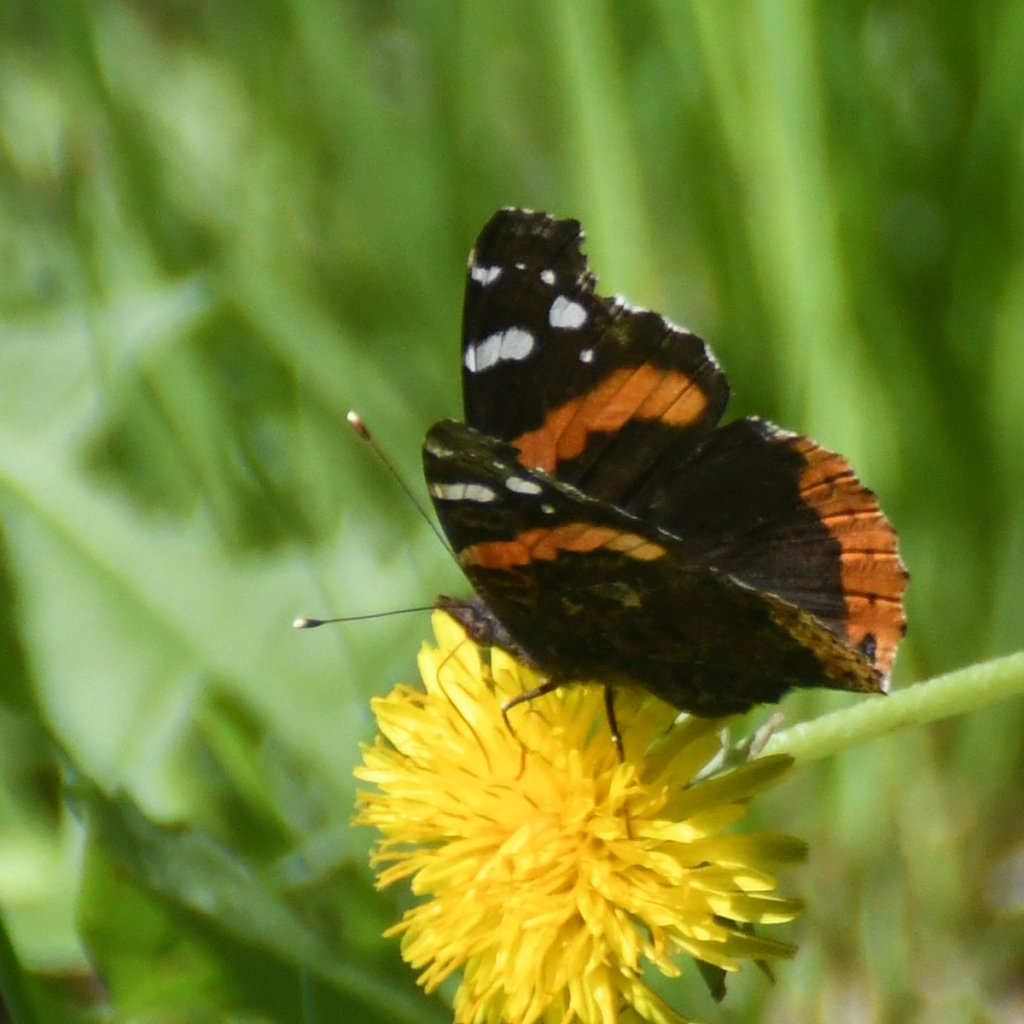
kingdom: Animalia
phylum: Arthropoda
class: Insecta
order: Lepidoptera
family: Nymphalidae
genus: Vanessa
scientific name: Vanessa atalanta
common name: Red Admiral
